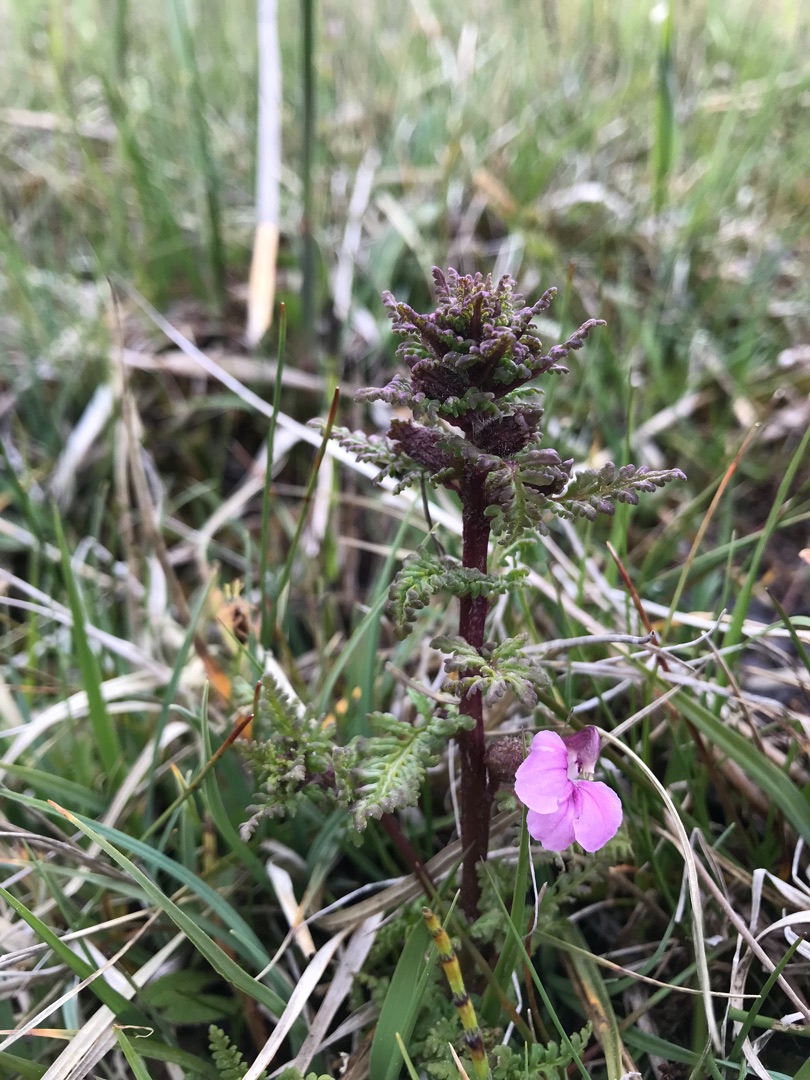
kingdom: Plantae
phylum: Tracheophyta
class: Magnoliopsida
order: Lamiales
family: Orobanchaceae
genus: Pedicularis
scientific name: Pedicularis palustris
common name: Eng-troldurt
